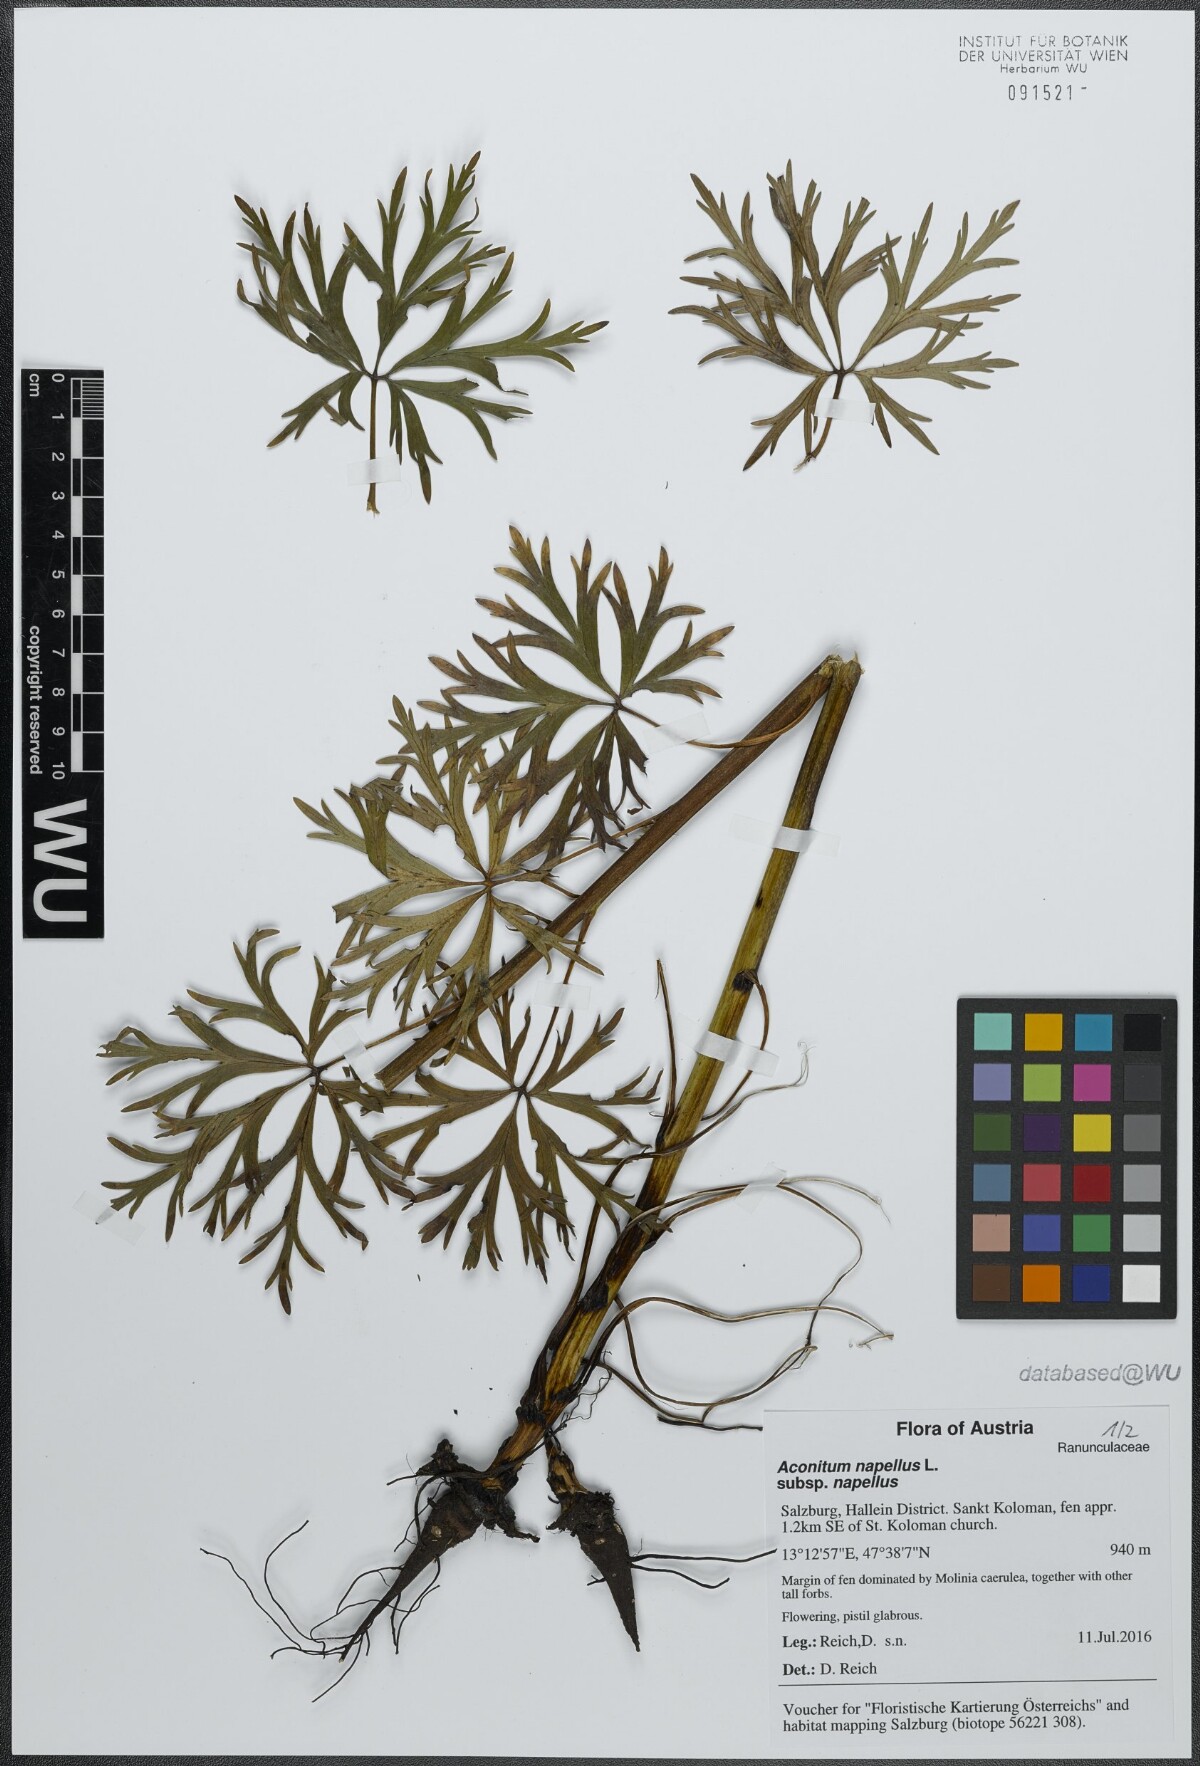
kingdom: Plantae
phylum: Tracheophyta
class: Magnoliopsida
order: Ranunculales
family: Ranunculaceae
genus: Aconitum
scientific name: Aconitum napellus
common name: Garden monkshood
